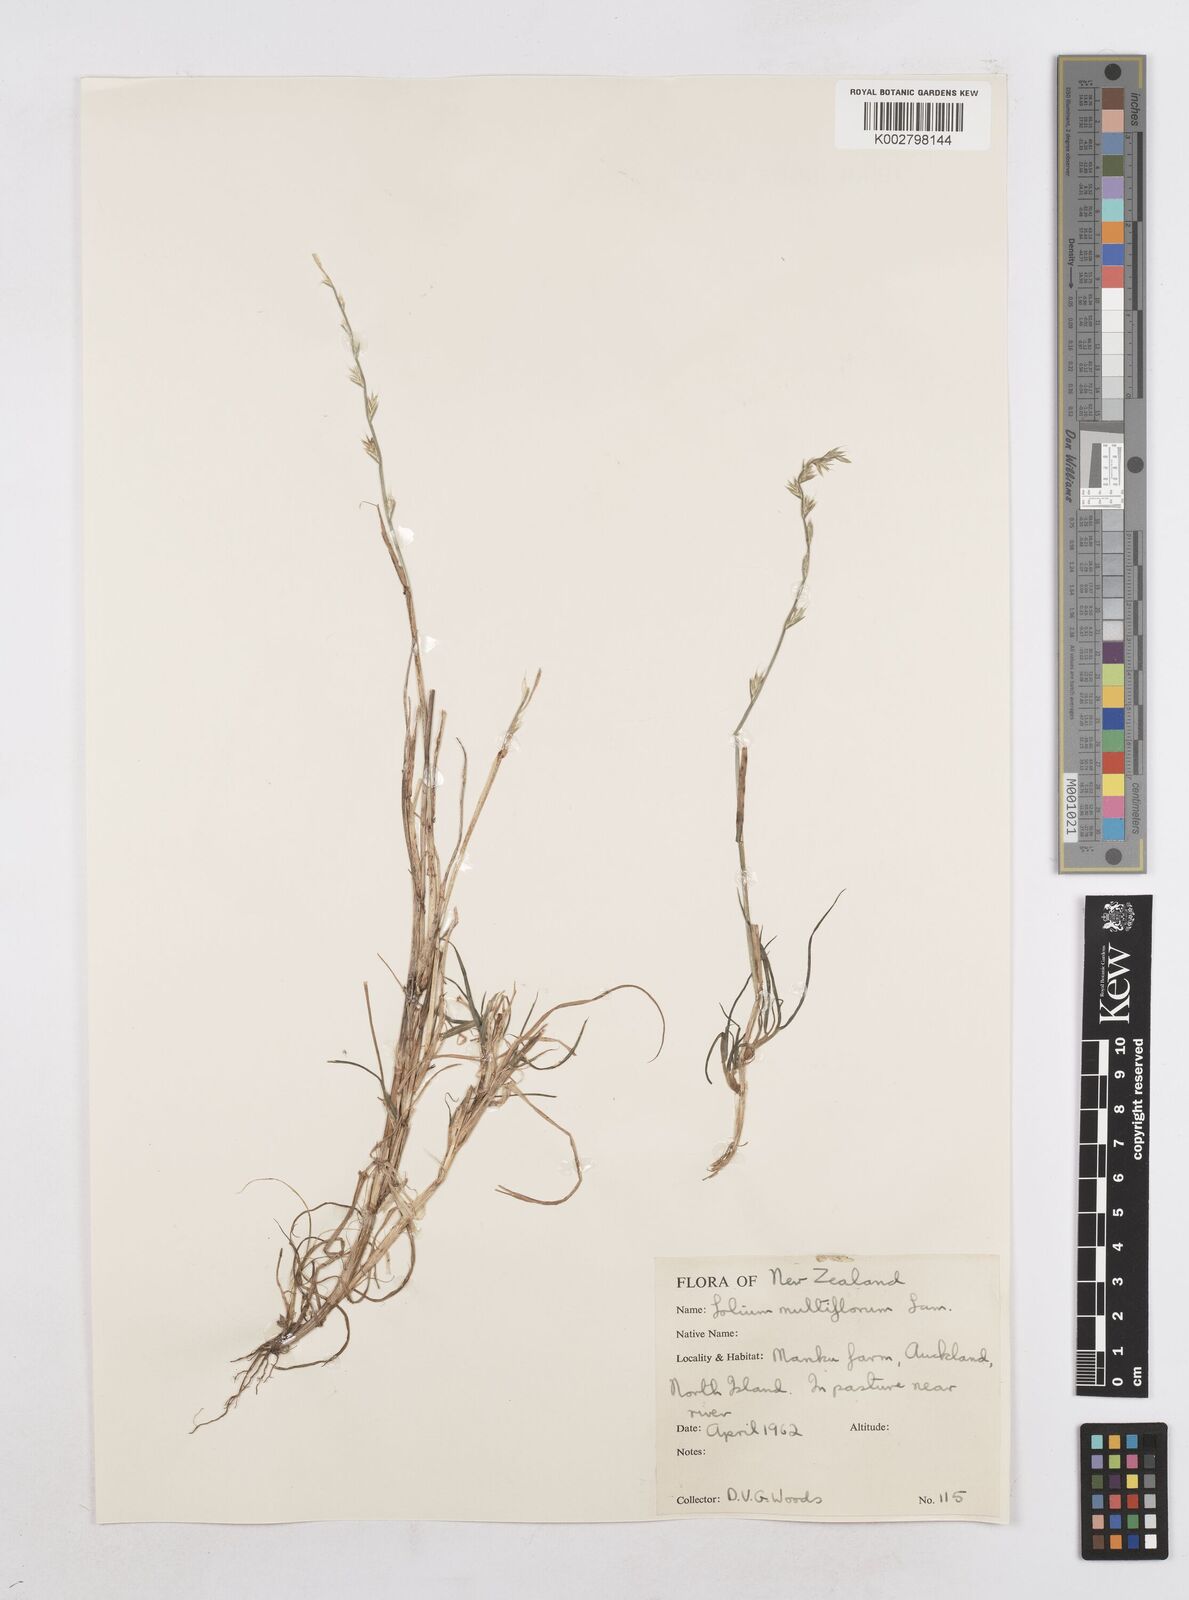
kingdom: Plantae
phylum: Tracheophyta
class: Liliopsida
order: Poales
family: Poaceae
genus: Lolium
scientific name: Lolium multiflorum
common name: Annual ryegrass
